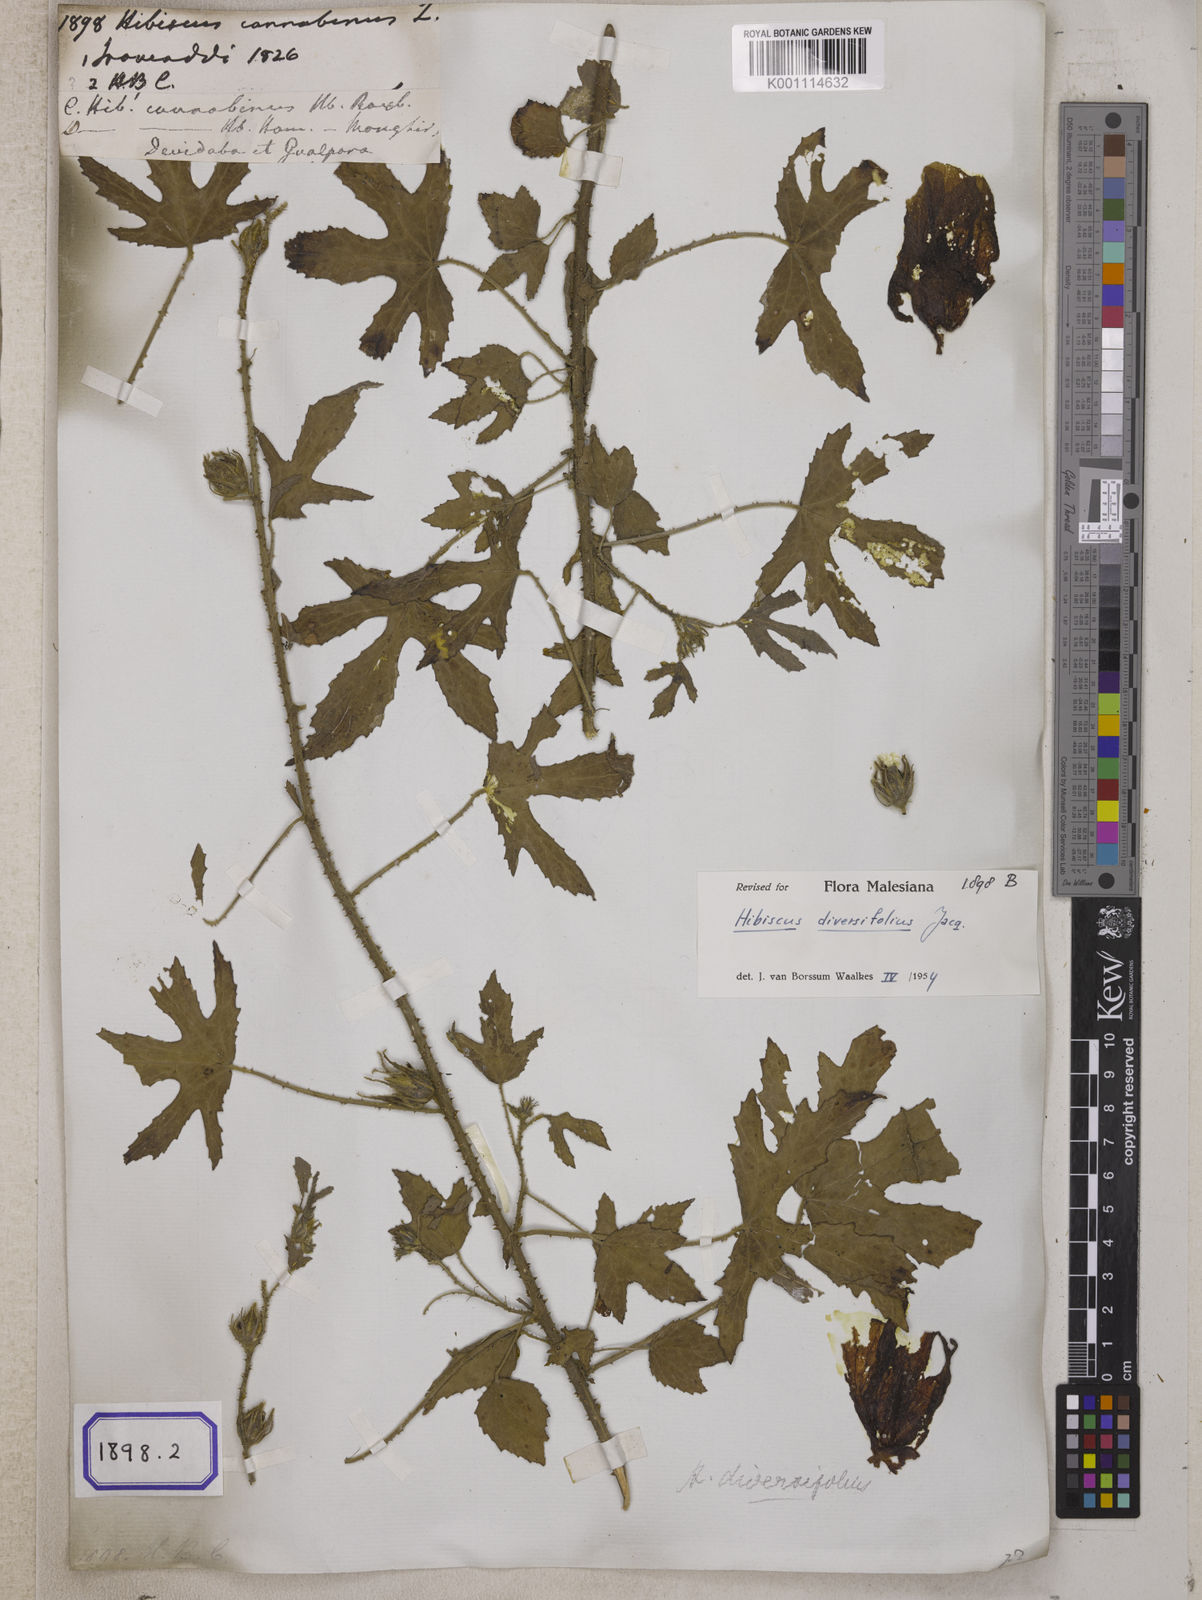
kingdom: Plantae
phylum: Tracheophyta
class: Magnoliopsida
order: Malvales
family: Malvaceae
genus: Hibiscus
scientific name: Hibiscus cannabinus
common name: Brown indianhemp
